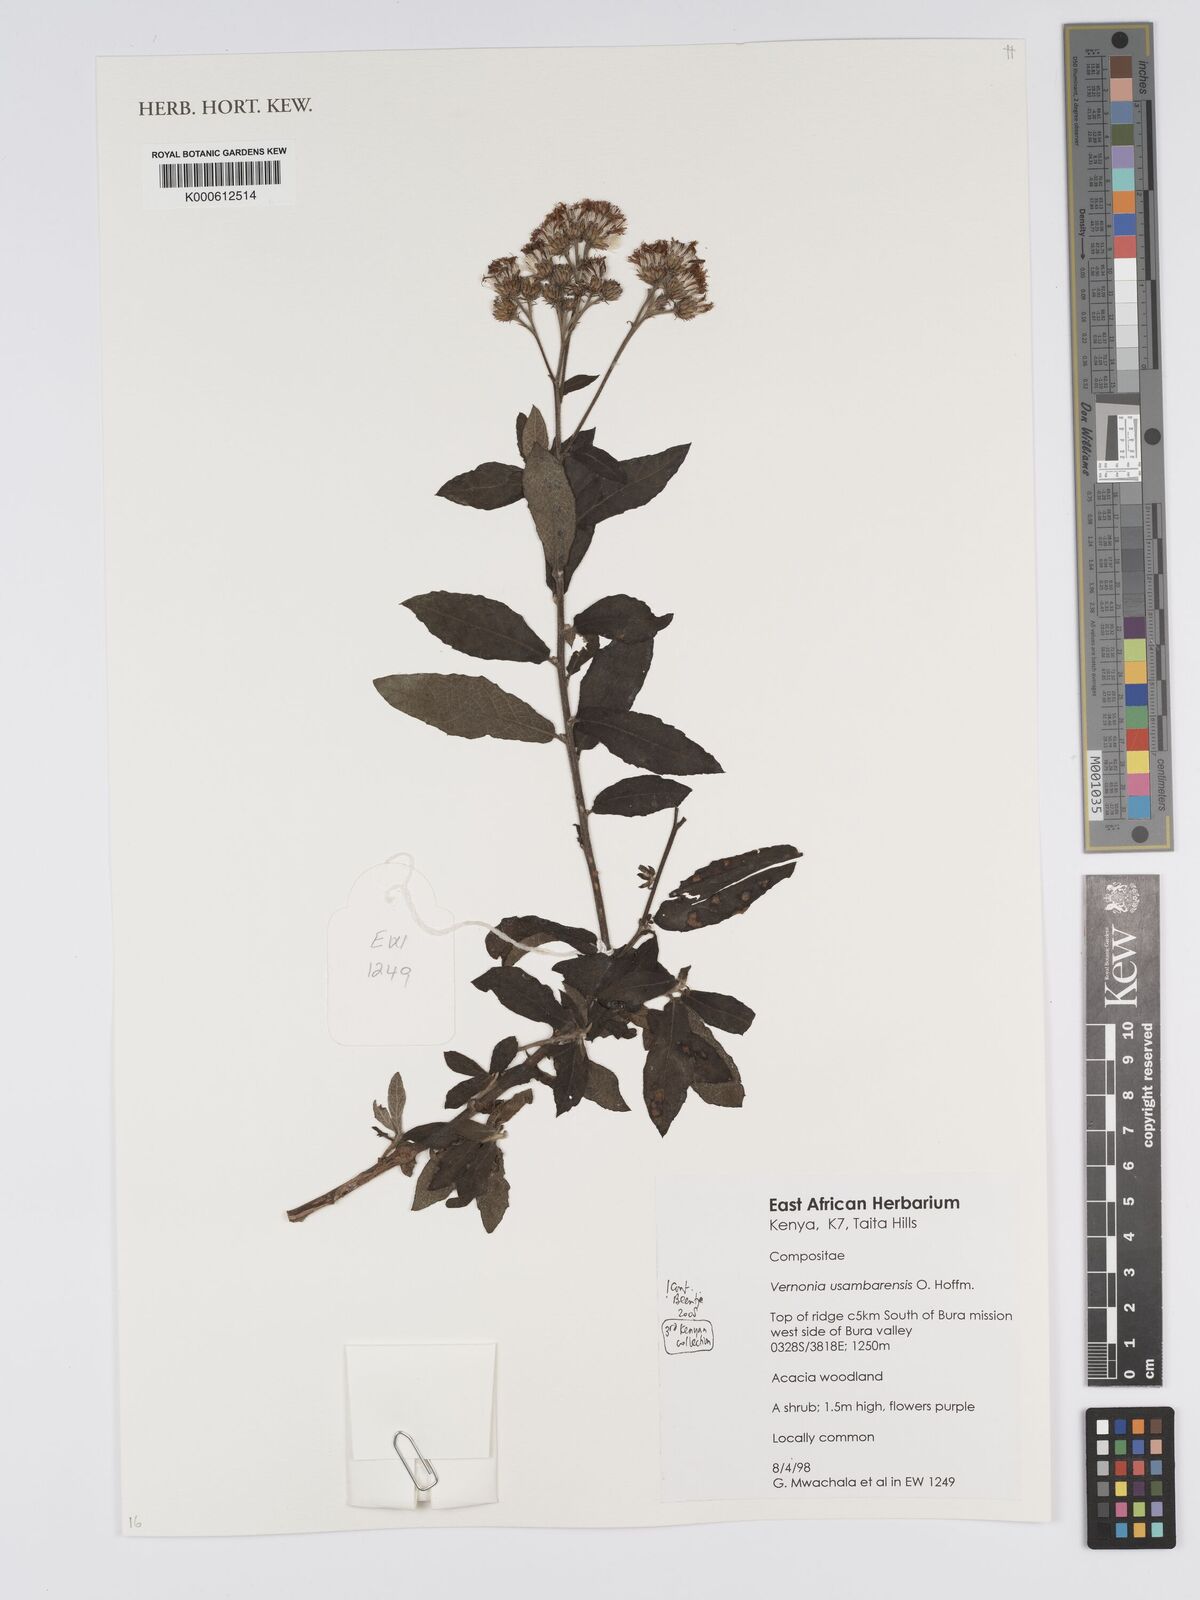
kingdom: Plantae
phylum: Tracheophyta
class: Magnoliopsida
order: Asterales
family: Asteraceae
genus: Jeffreycia
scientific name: Jeffreycia usambarensis
